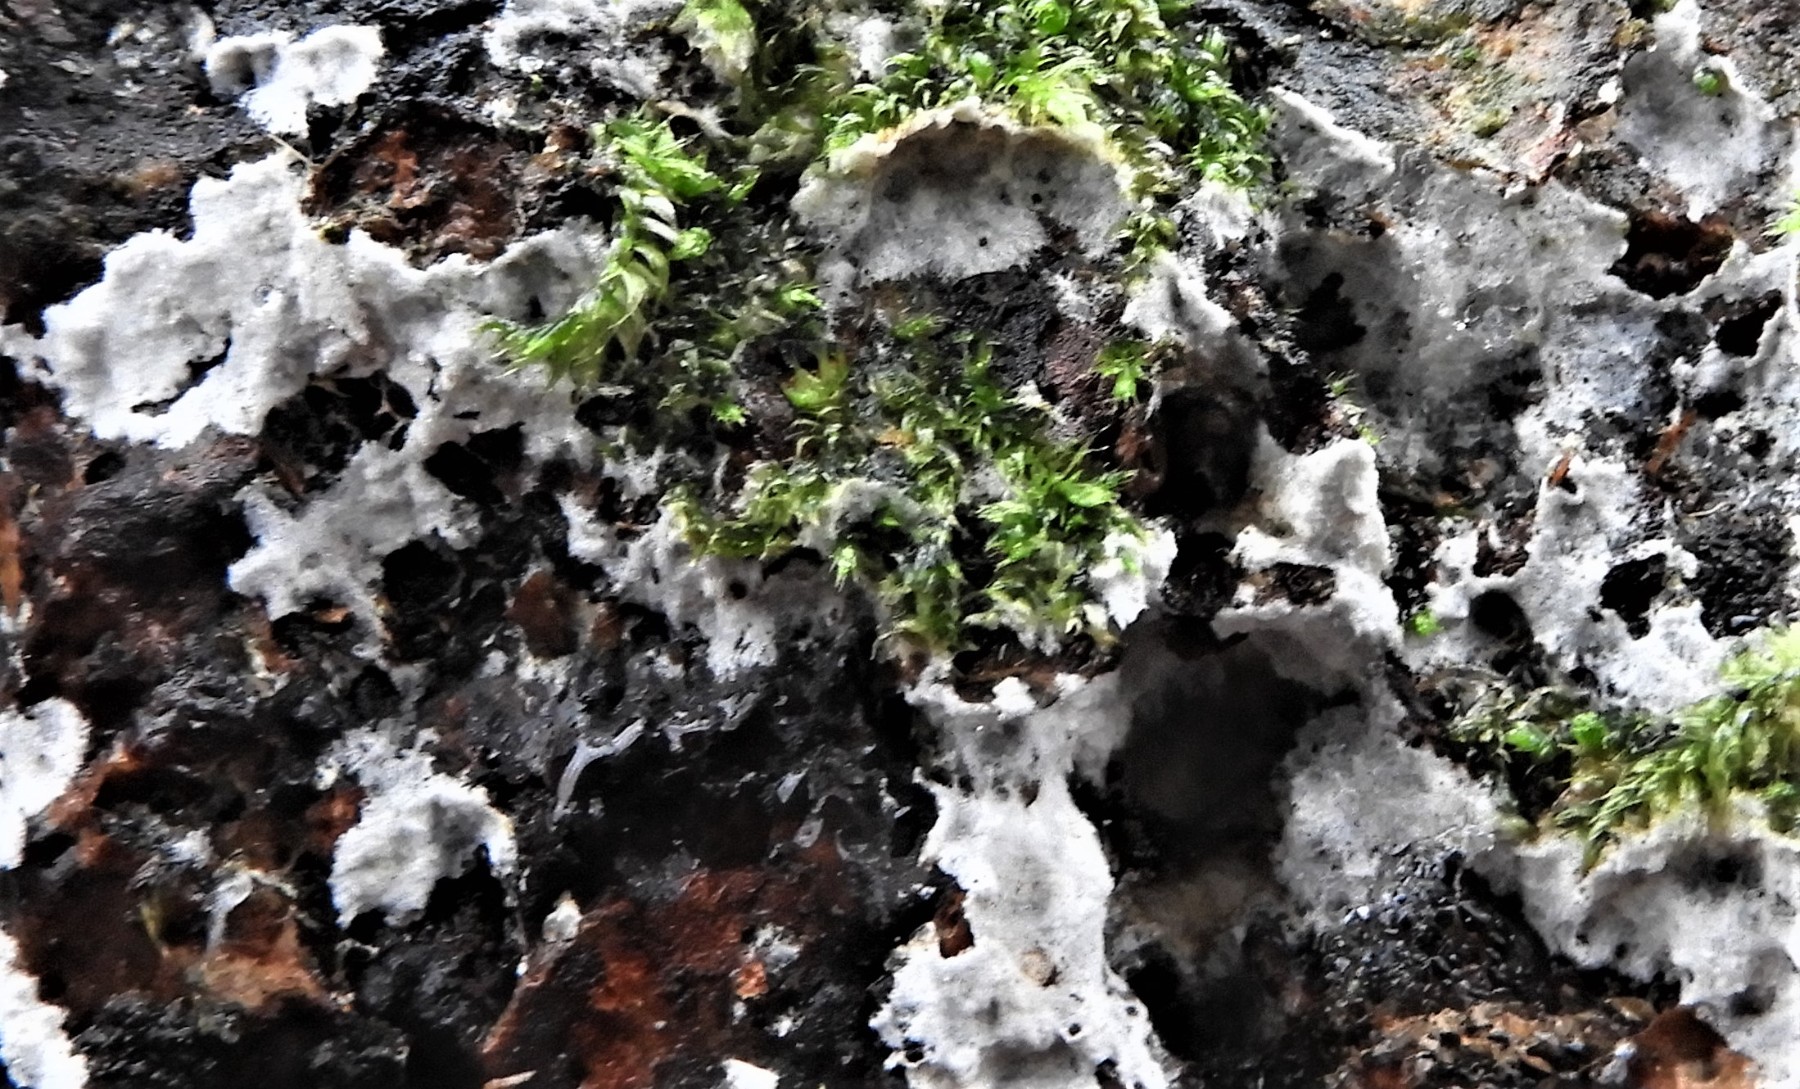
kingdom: Fungi
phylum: Basidiomycota
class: Agaricomycetes
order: Corticiales
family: Corticiaceae
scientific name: Corticiaceae
